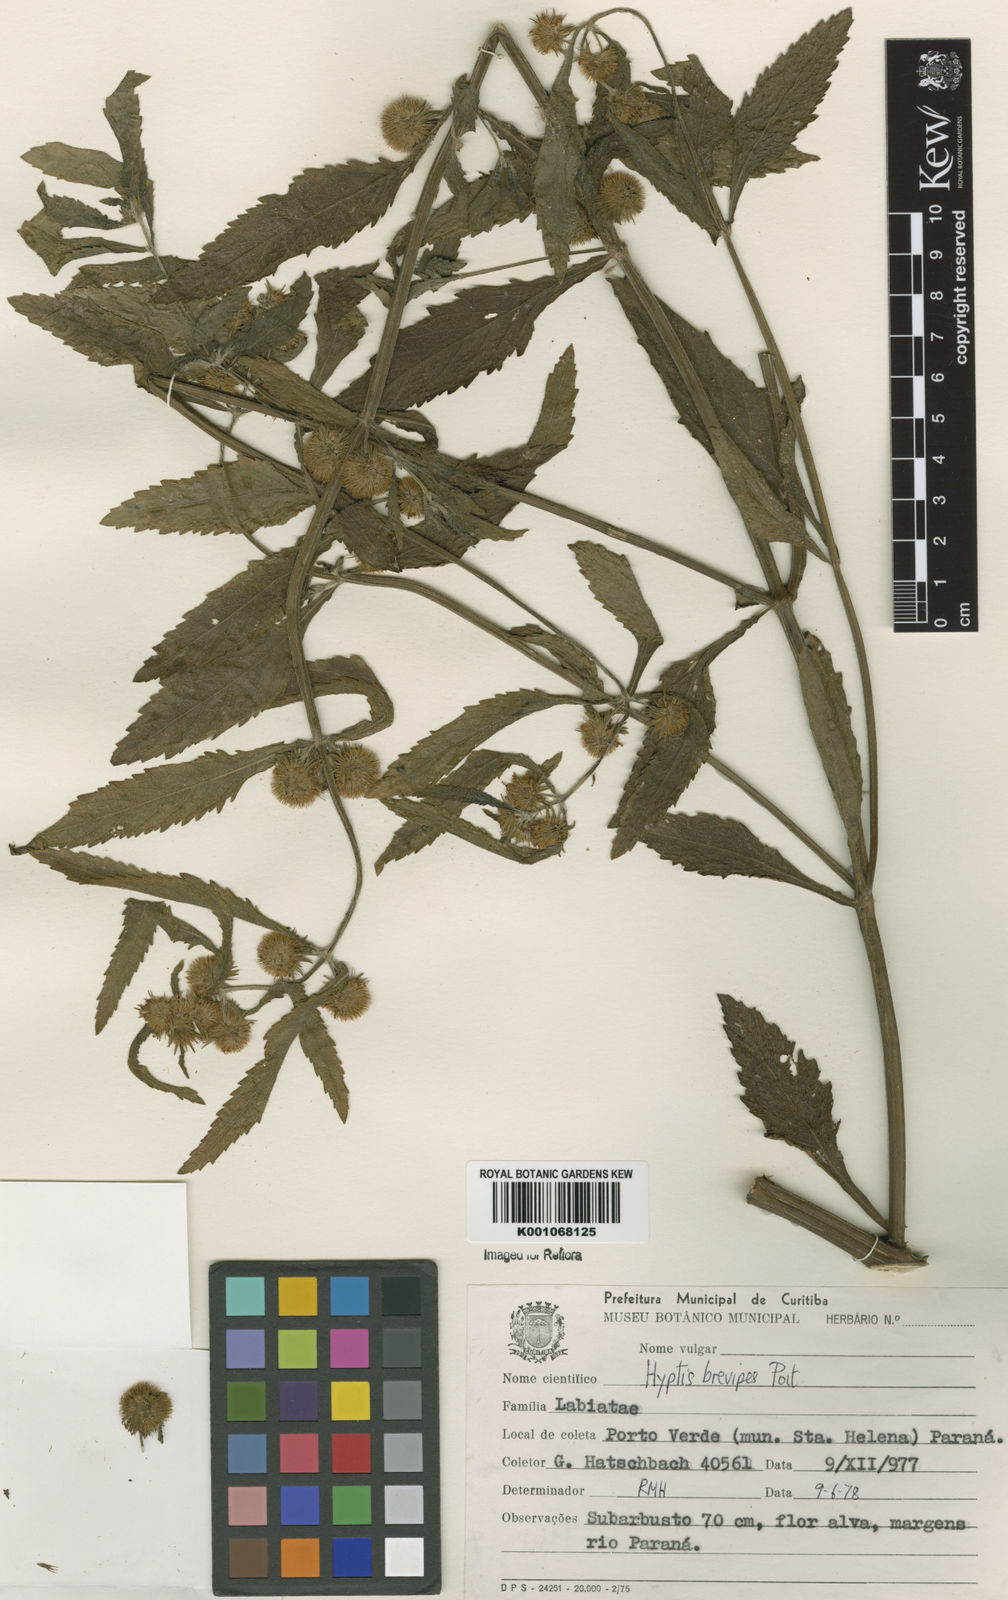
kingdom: Plantae
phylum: Tracheophyta
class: Magnoliopsida
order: Lamiales
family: Lamiaceae
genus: Hyptis
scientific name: Hyptis brevipes
